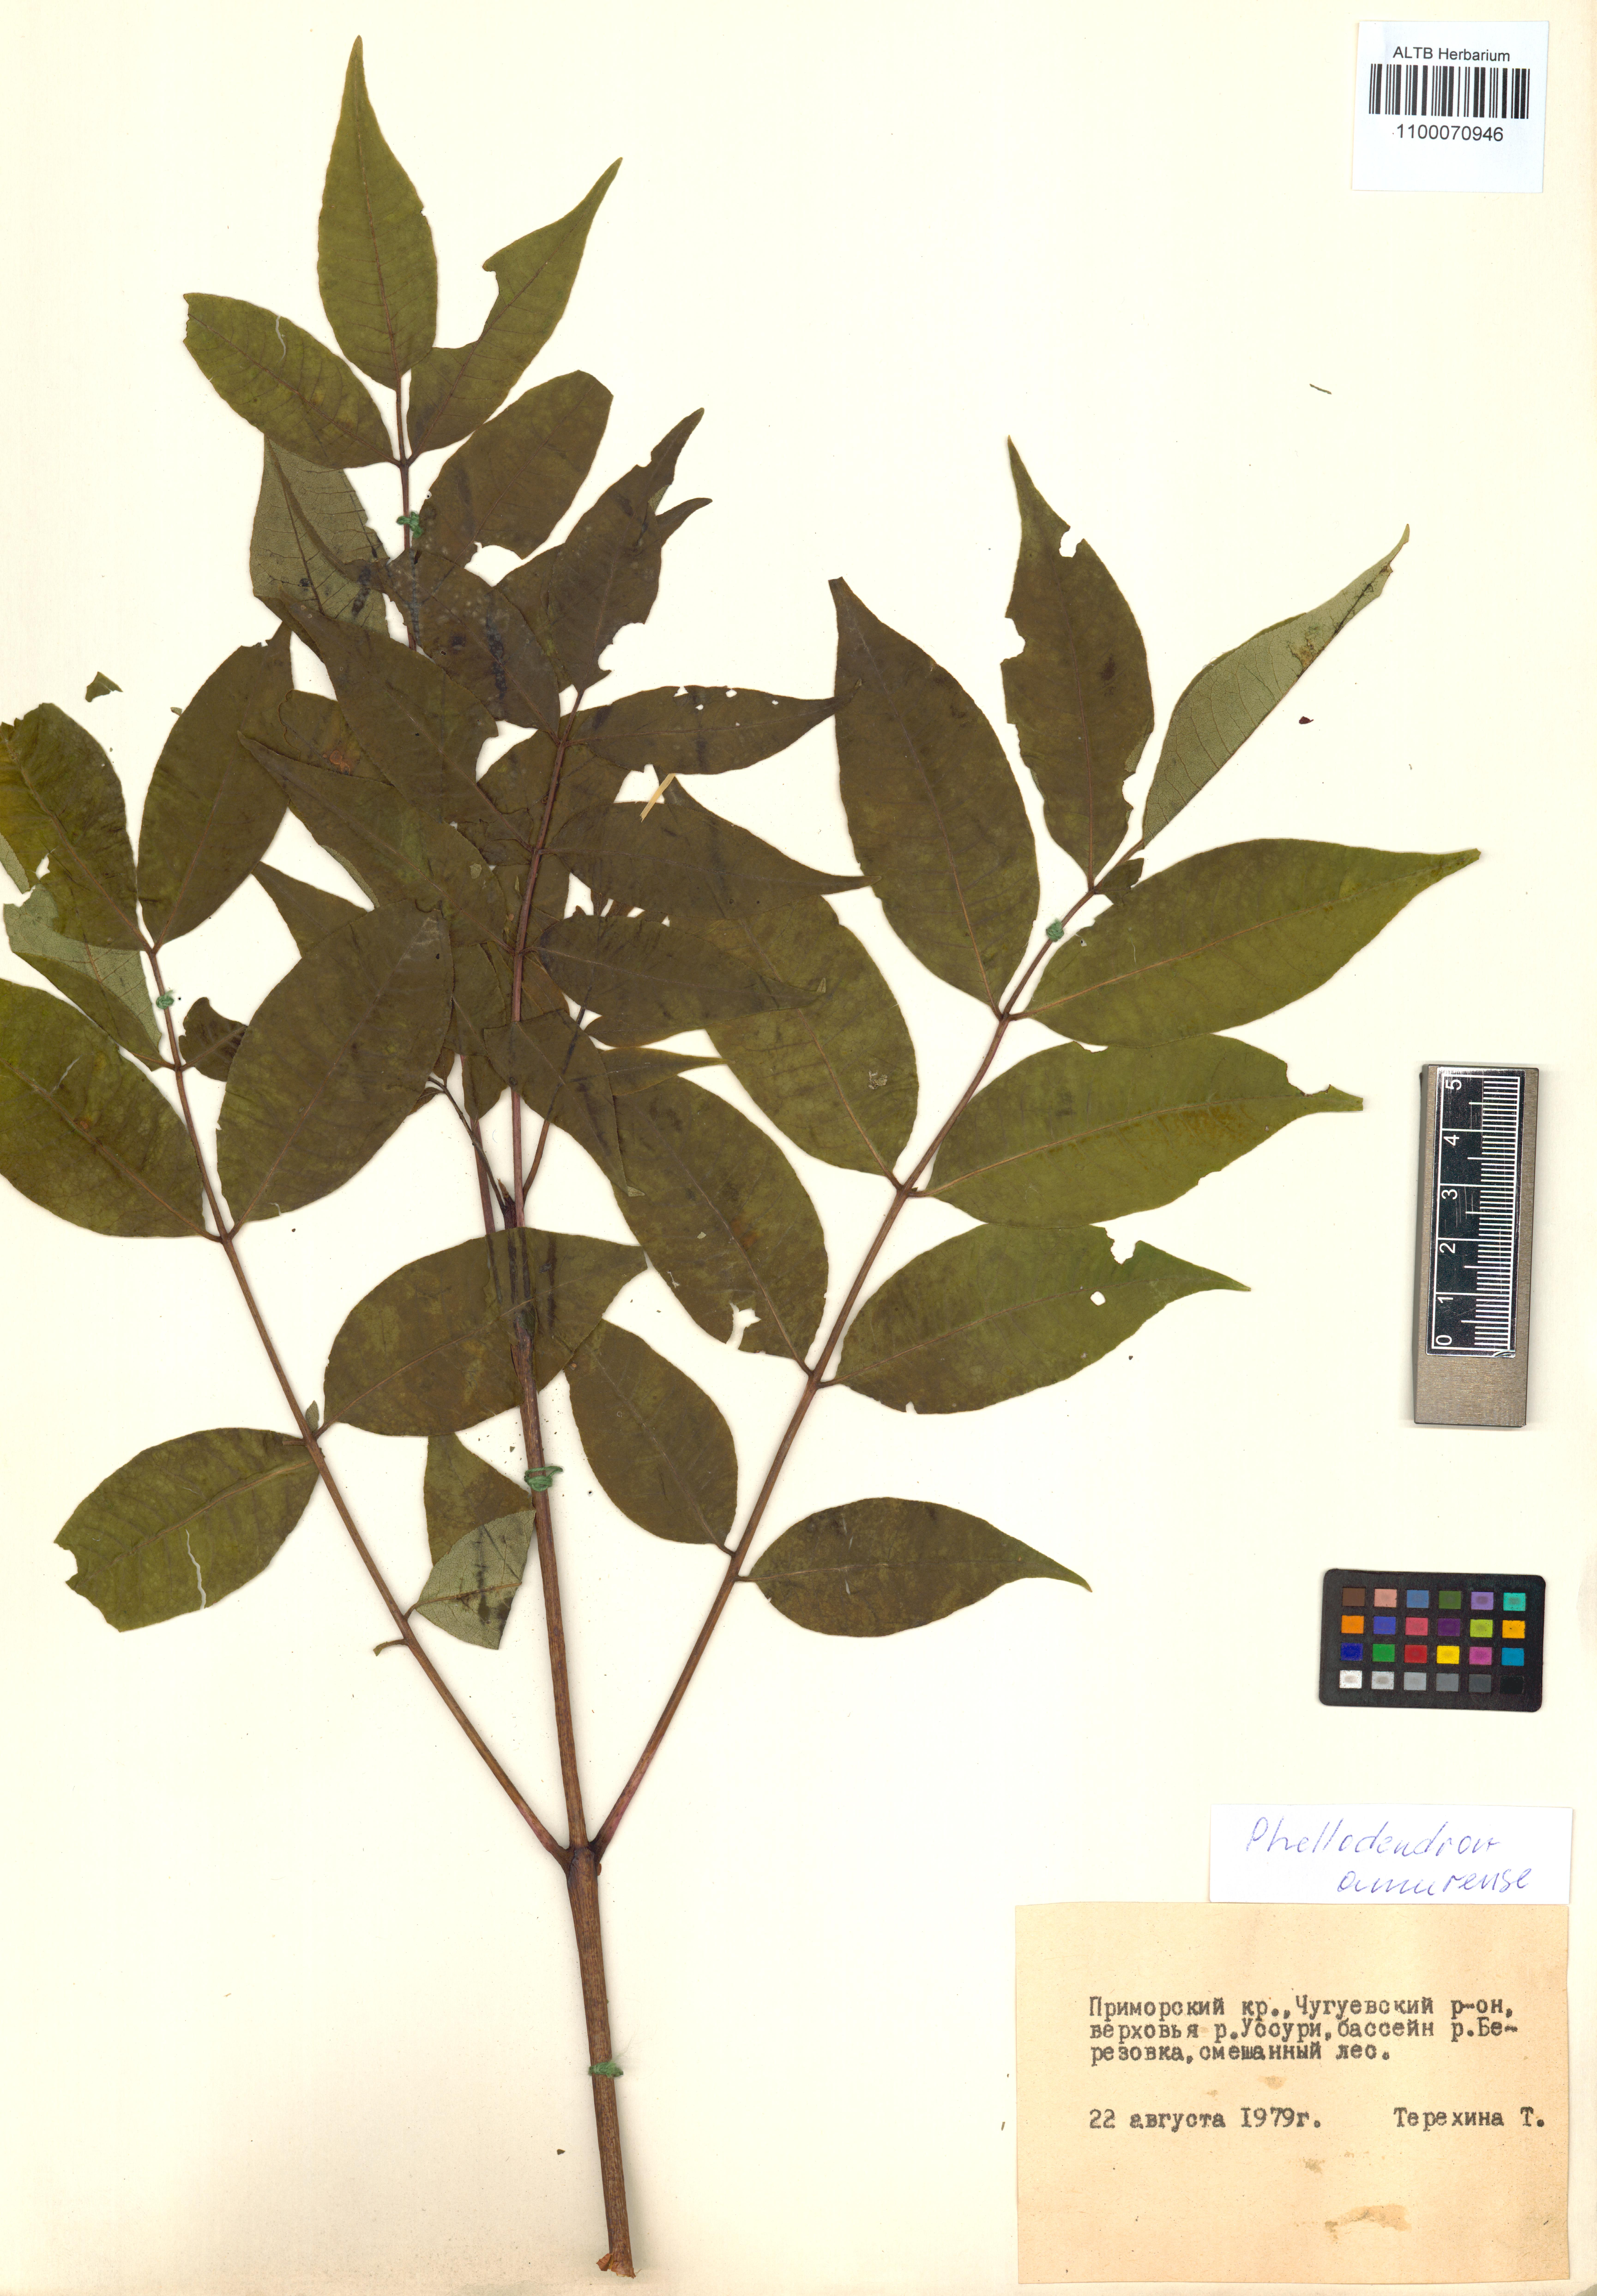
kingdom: Plantae
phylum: Tracheophyta
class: Magnoliopsida
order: Sapindales
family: Rutaceae
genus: Phellodendron
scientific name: Phellodendron amurense
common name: Amur corktree
